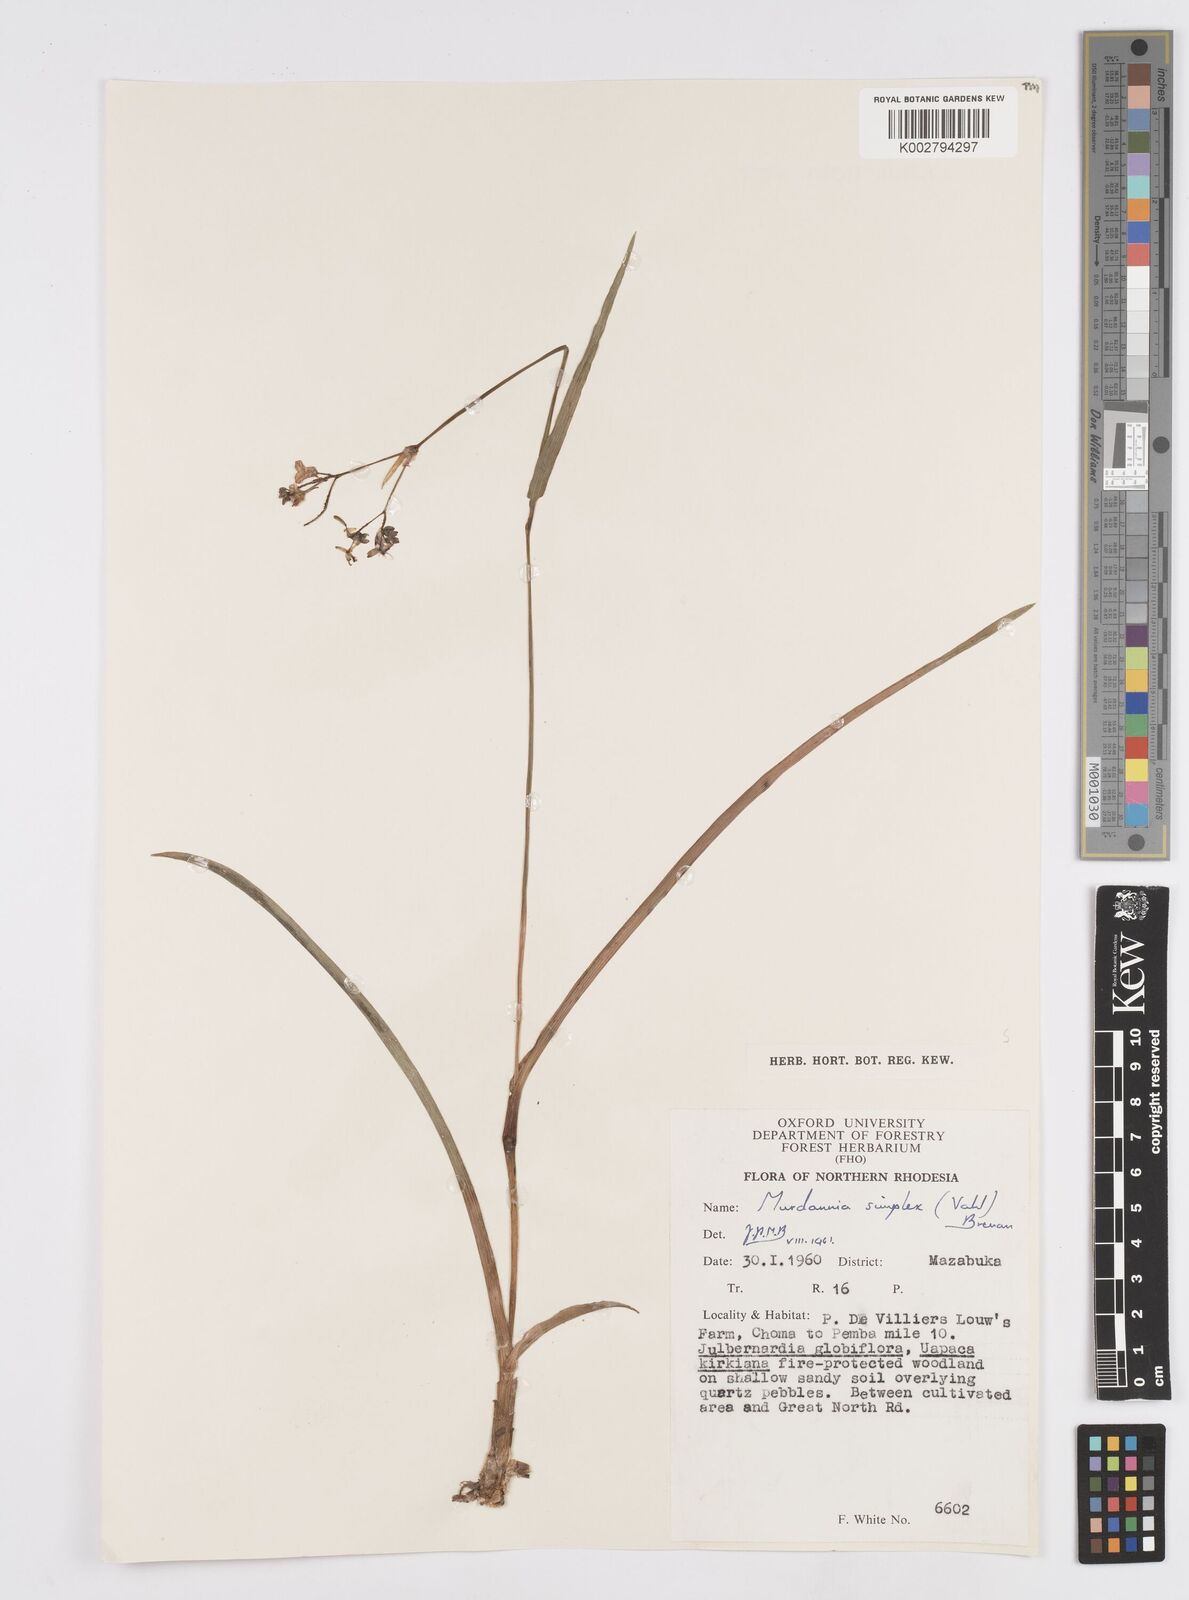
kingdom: Plantae
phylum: Tracheophyta
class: Liliopsida
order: Commelinales
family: Commelinaceae
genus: Murdannia
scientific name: Murdannia simplex
